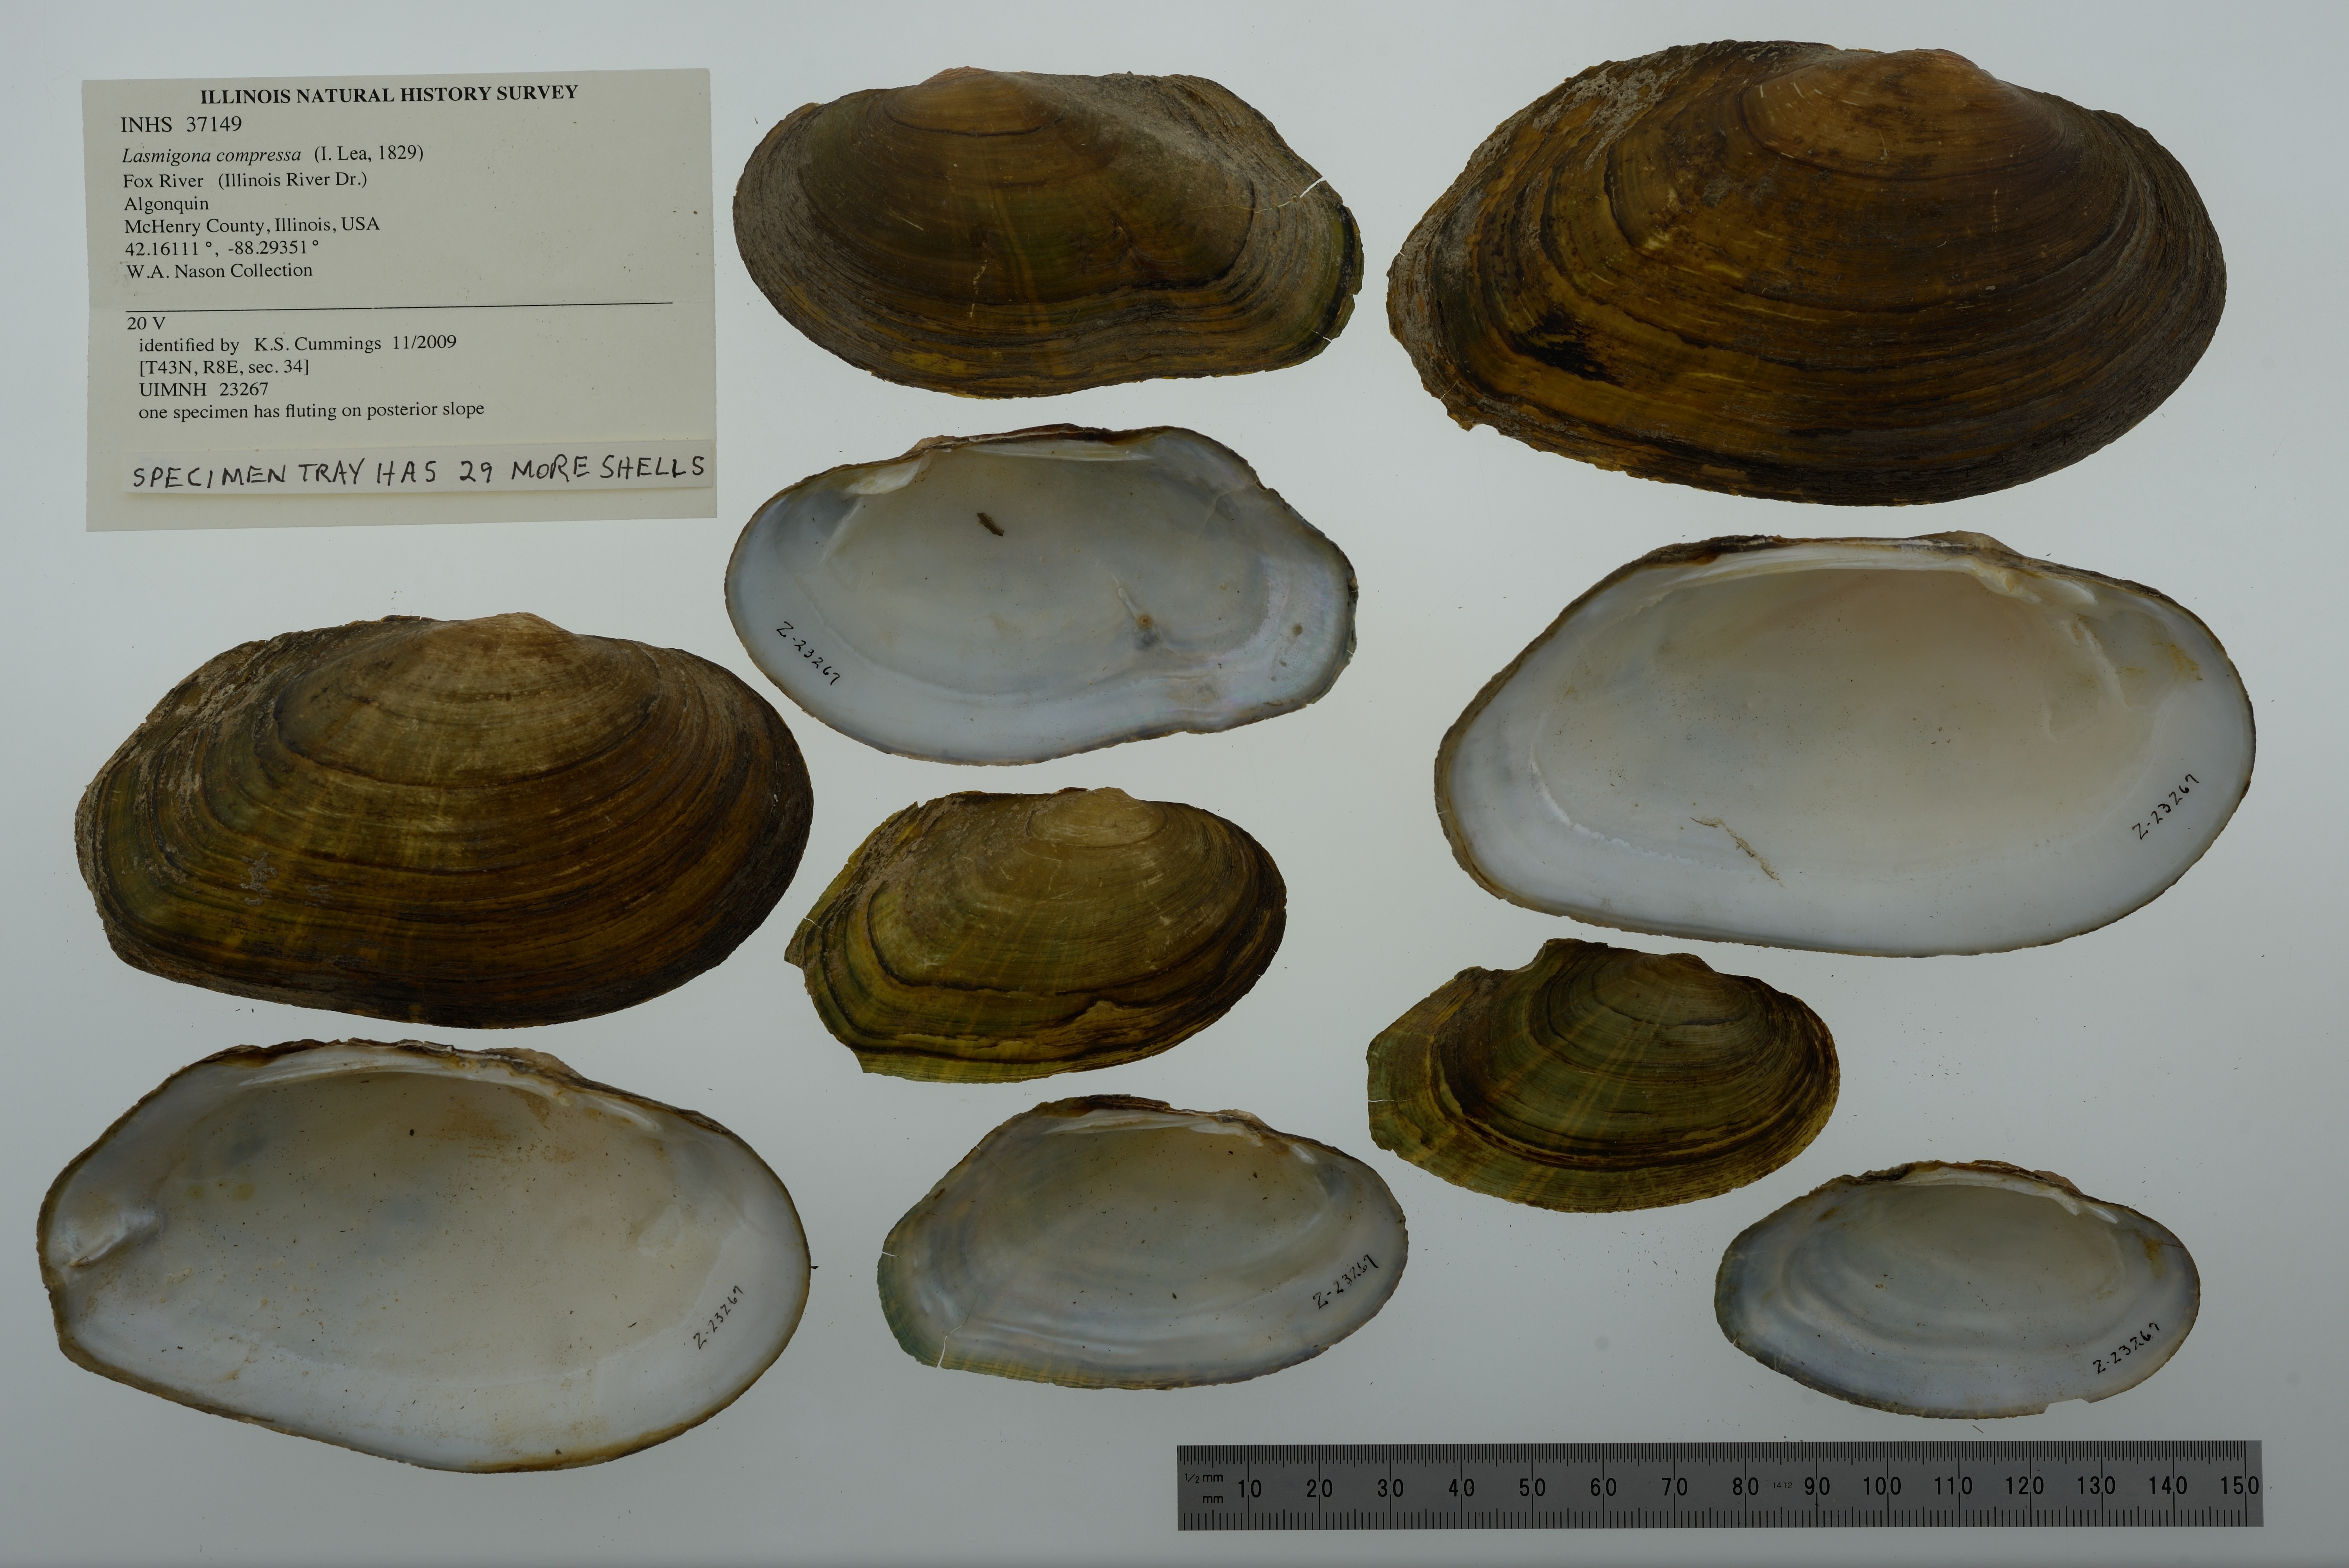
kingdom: Animalia
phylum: Mollusca
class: Bivalvia
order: Unionida
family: Unionidae
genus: Lasmigona
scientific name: Lasmigona compressa
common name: Creek heelsplitter
